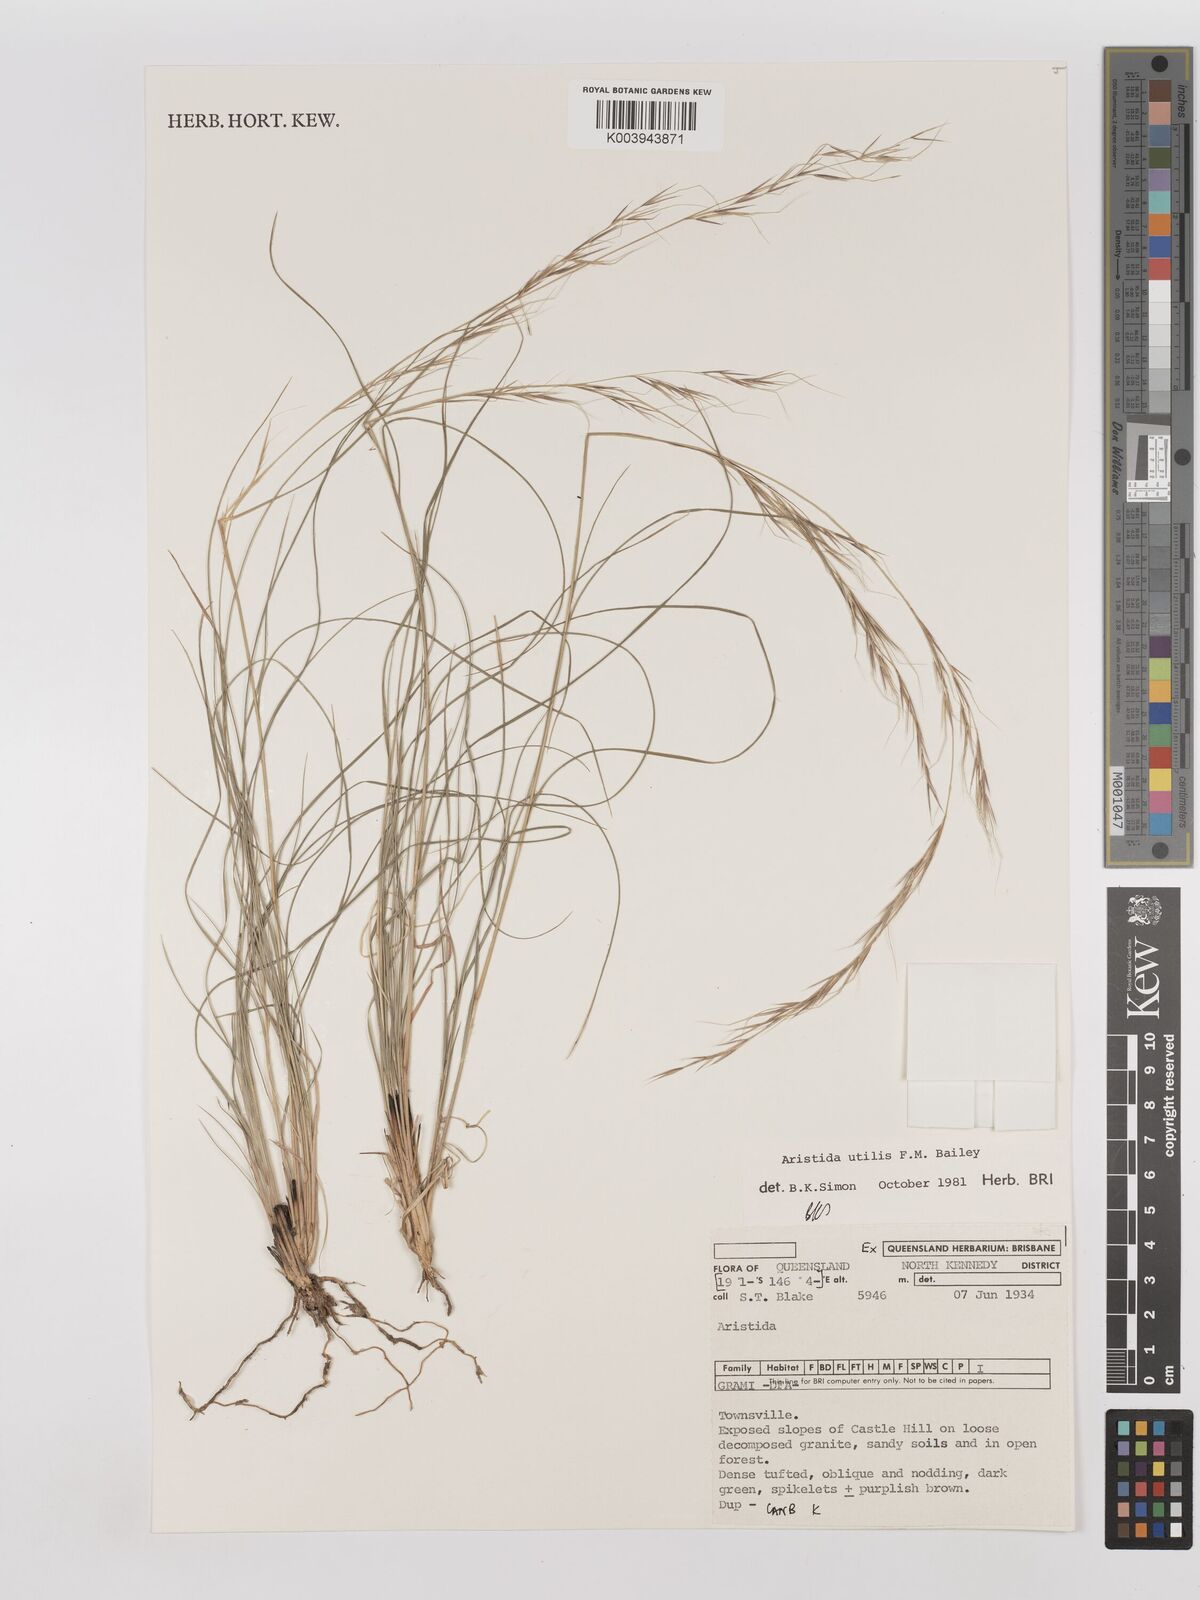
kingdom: Plantae
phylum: Tracheophyta
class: Liliopsida
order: Poales
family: Poaceae
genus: Aristida
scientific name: Aristida utilis
